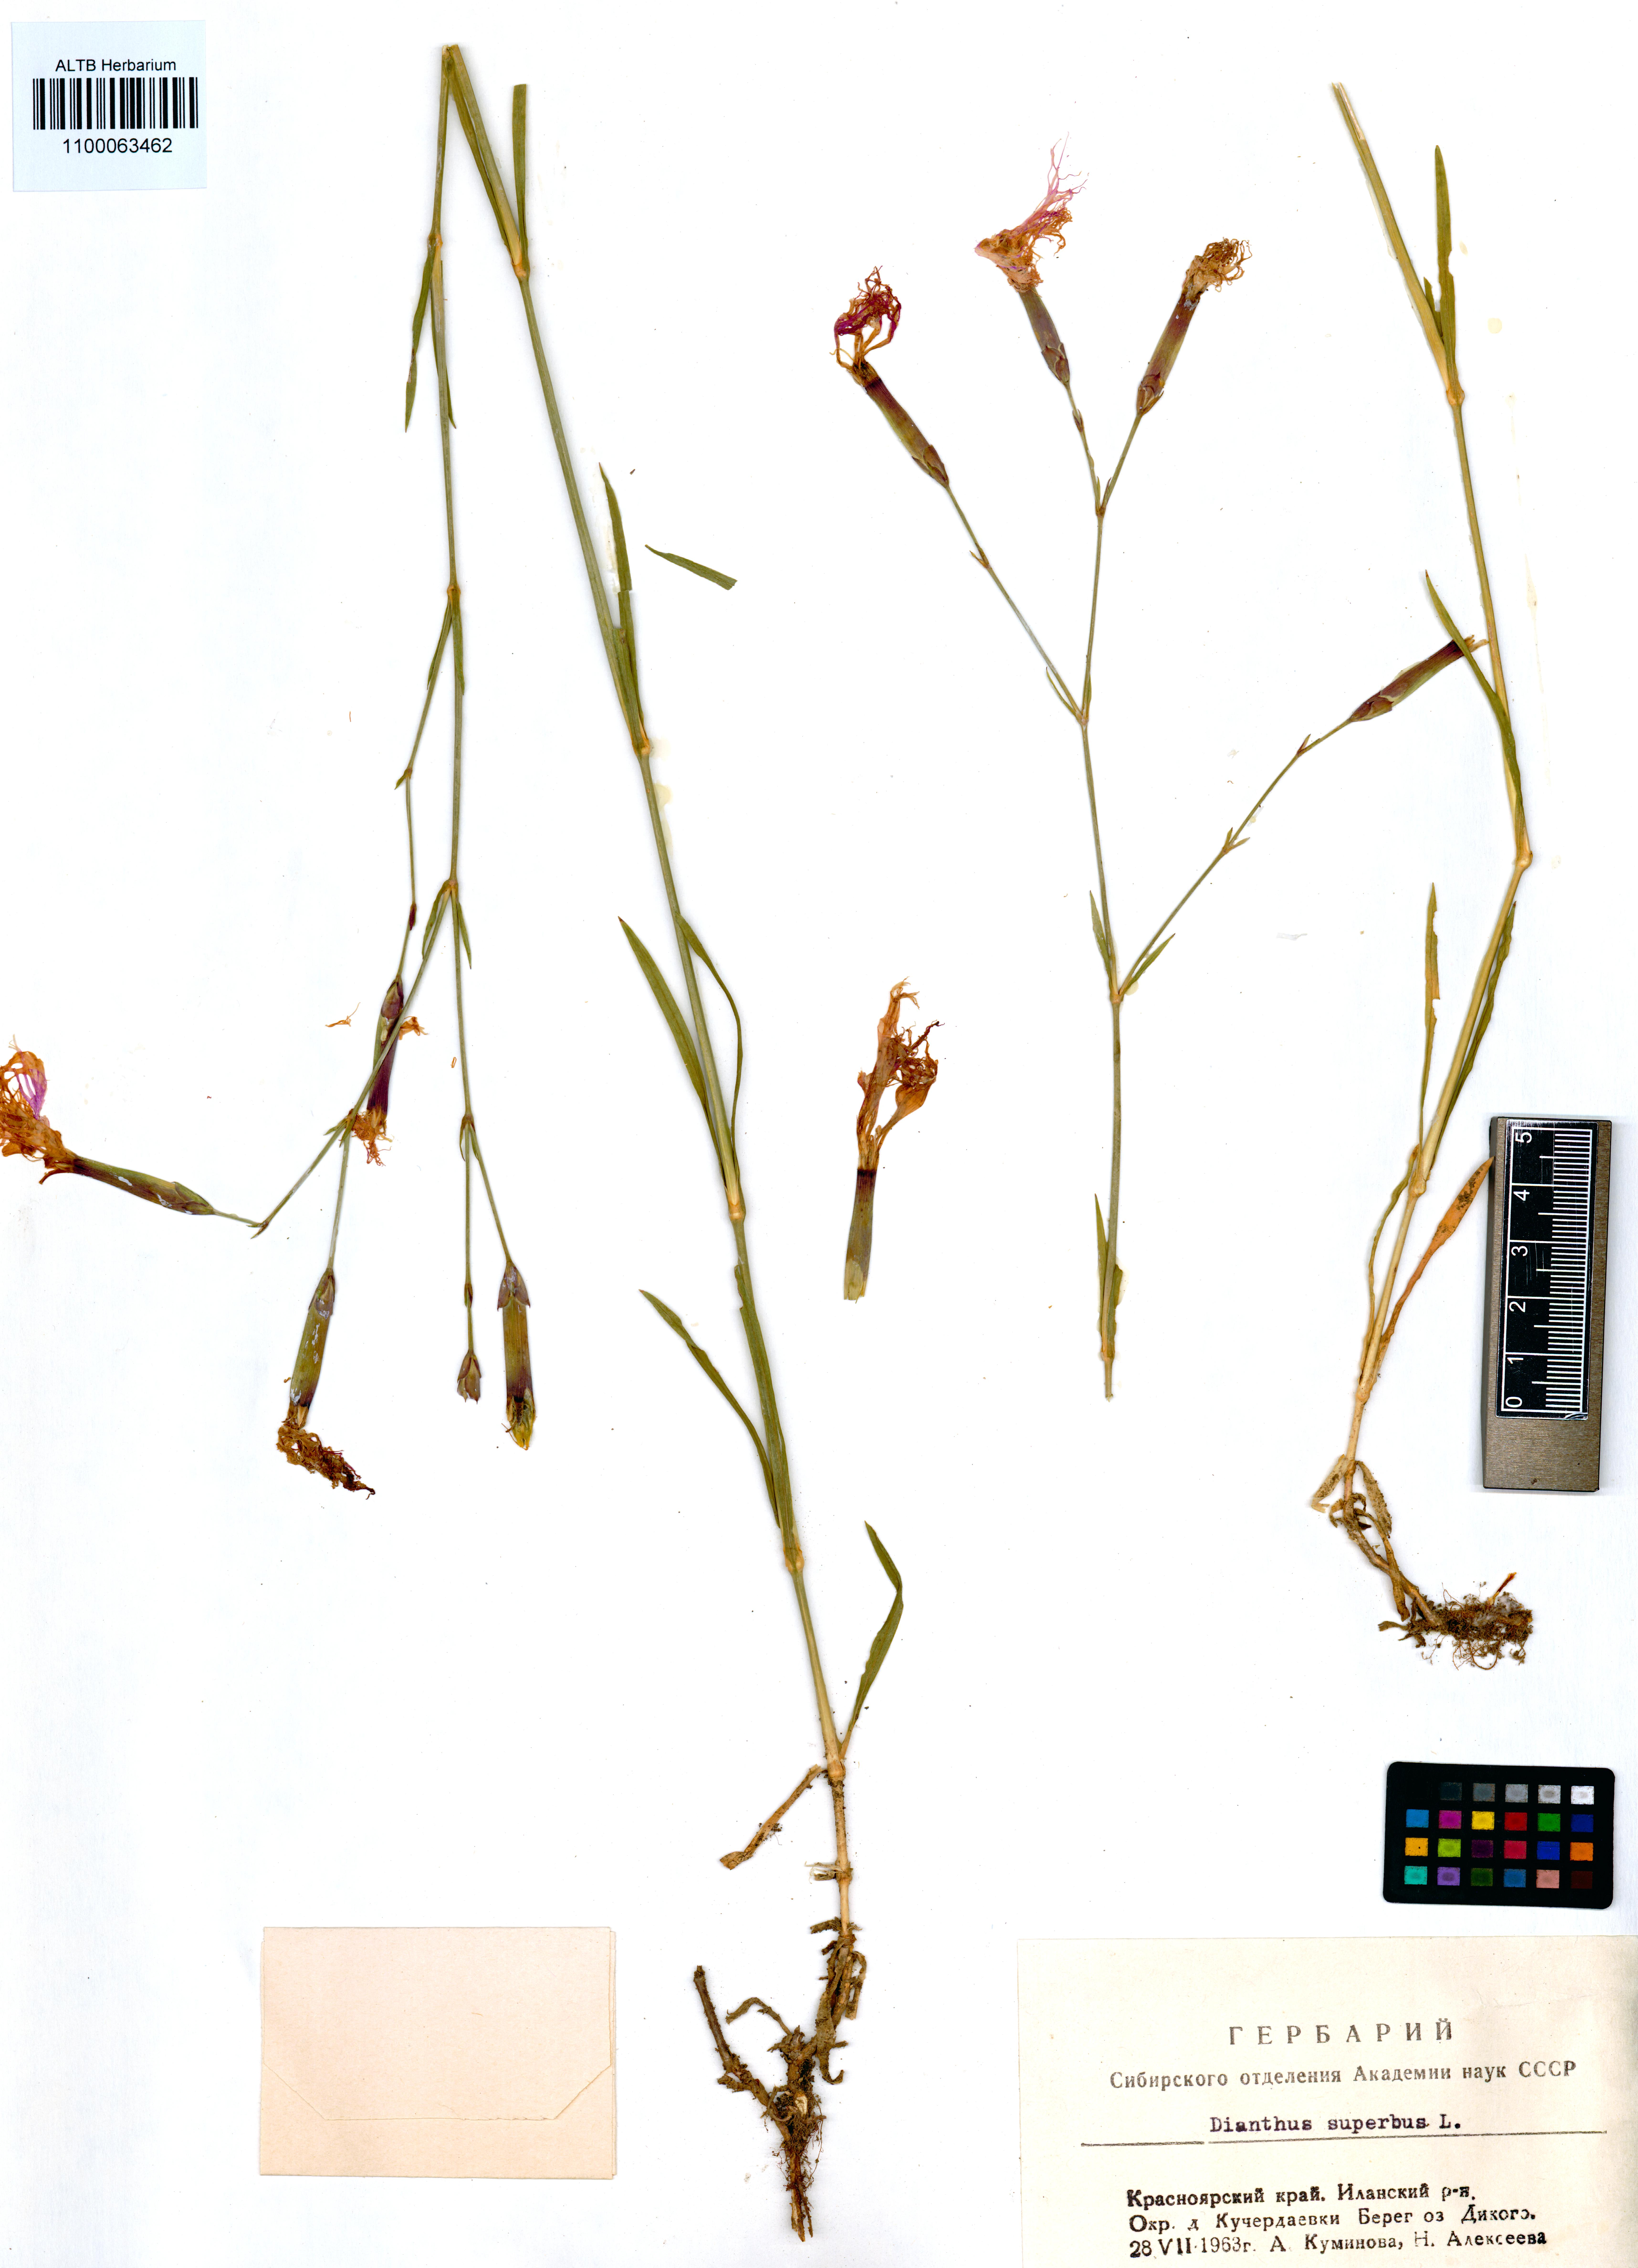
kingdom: Plantae
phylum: Tracheophyta
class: Magnoliopsida
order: Caryophyllales
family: Caryophyllaceae
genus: Dianthus
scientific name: Dianthus superbus
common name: Fringed pink
